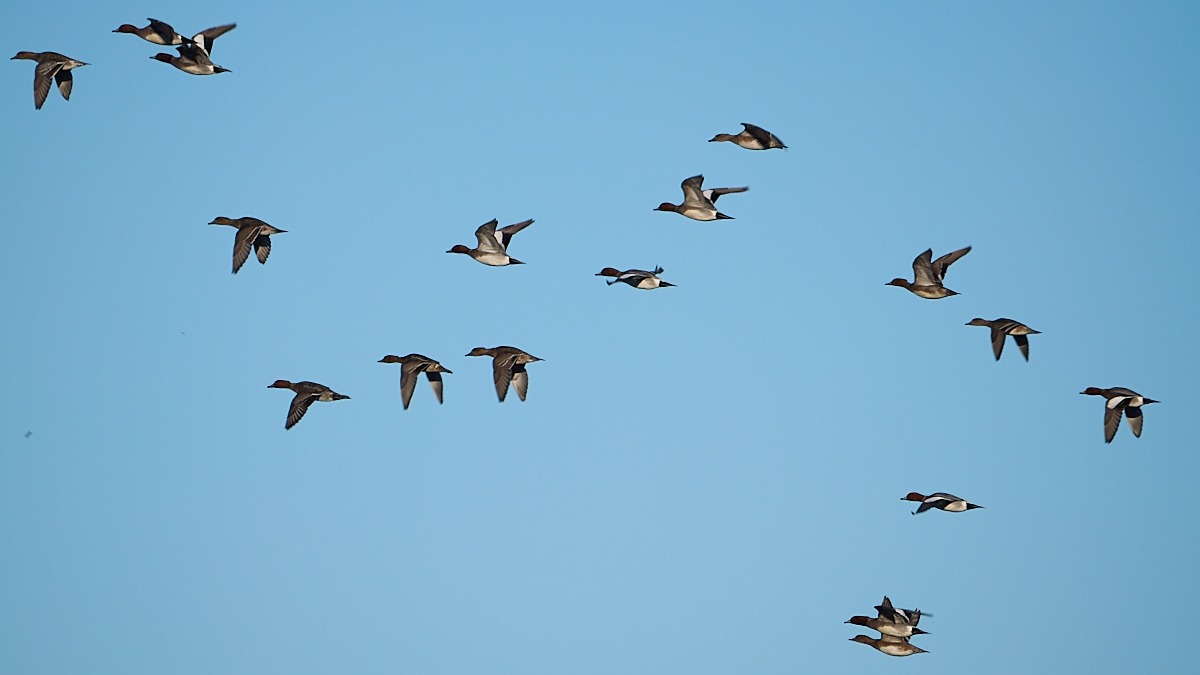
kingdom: Animalia
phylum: Chordata
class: Aves
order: Anseriformes
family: Anatidae
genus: Mareca
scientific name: Mareca penelope
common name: Pibeand
